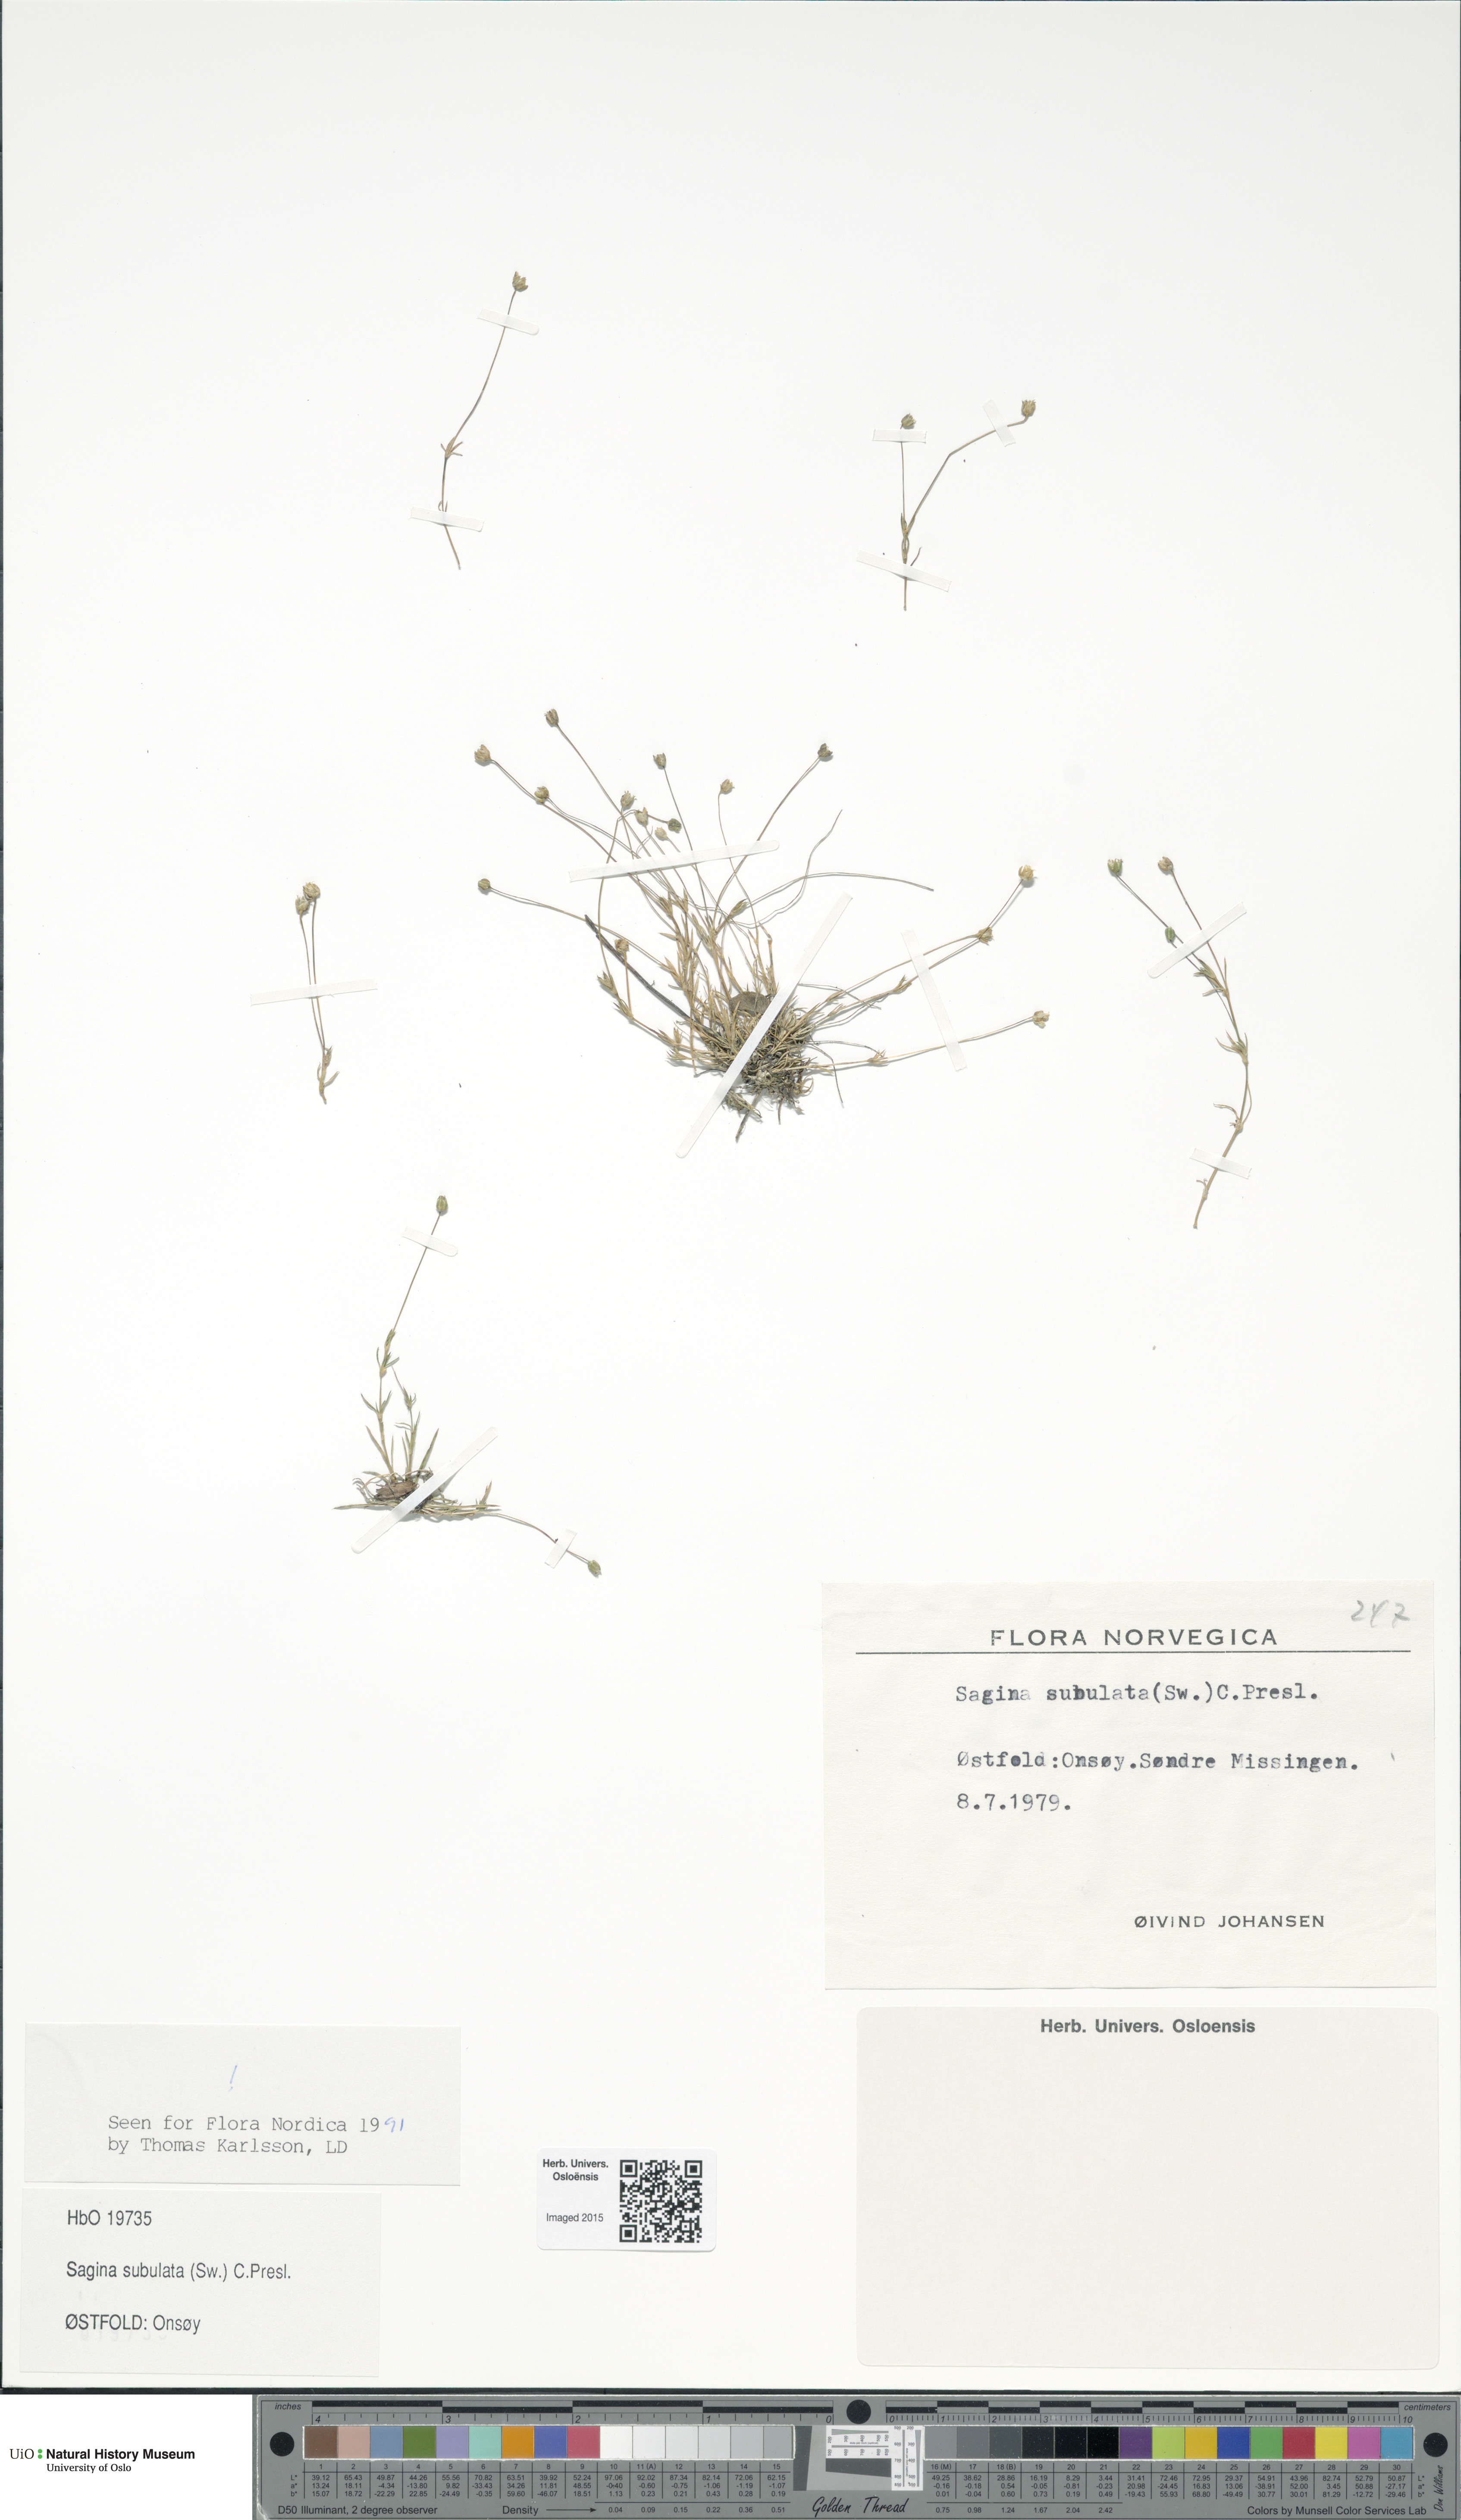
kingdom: Plantae
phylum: Tracheophyta
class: Magnoliopsida
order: Caryophyllales
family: Caryophyllaceae
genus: Sagina
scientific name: Sagina alexandrae
